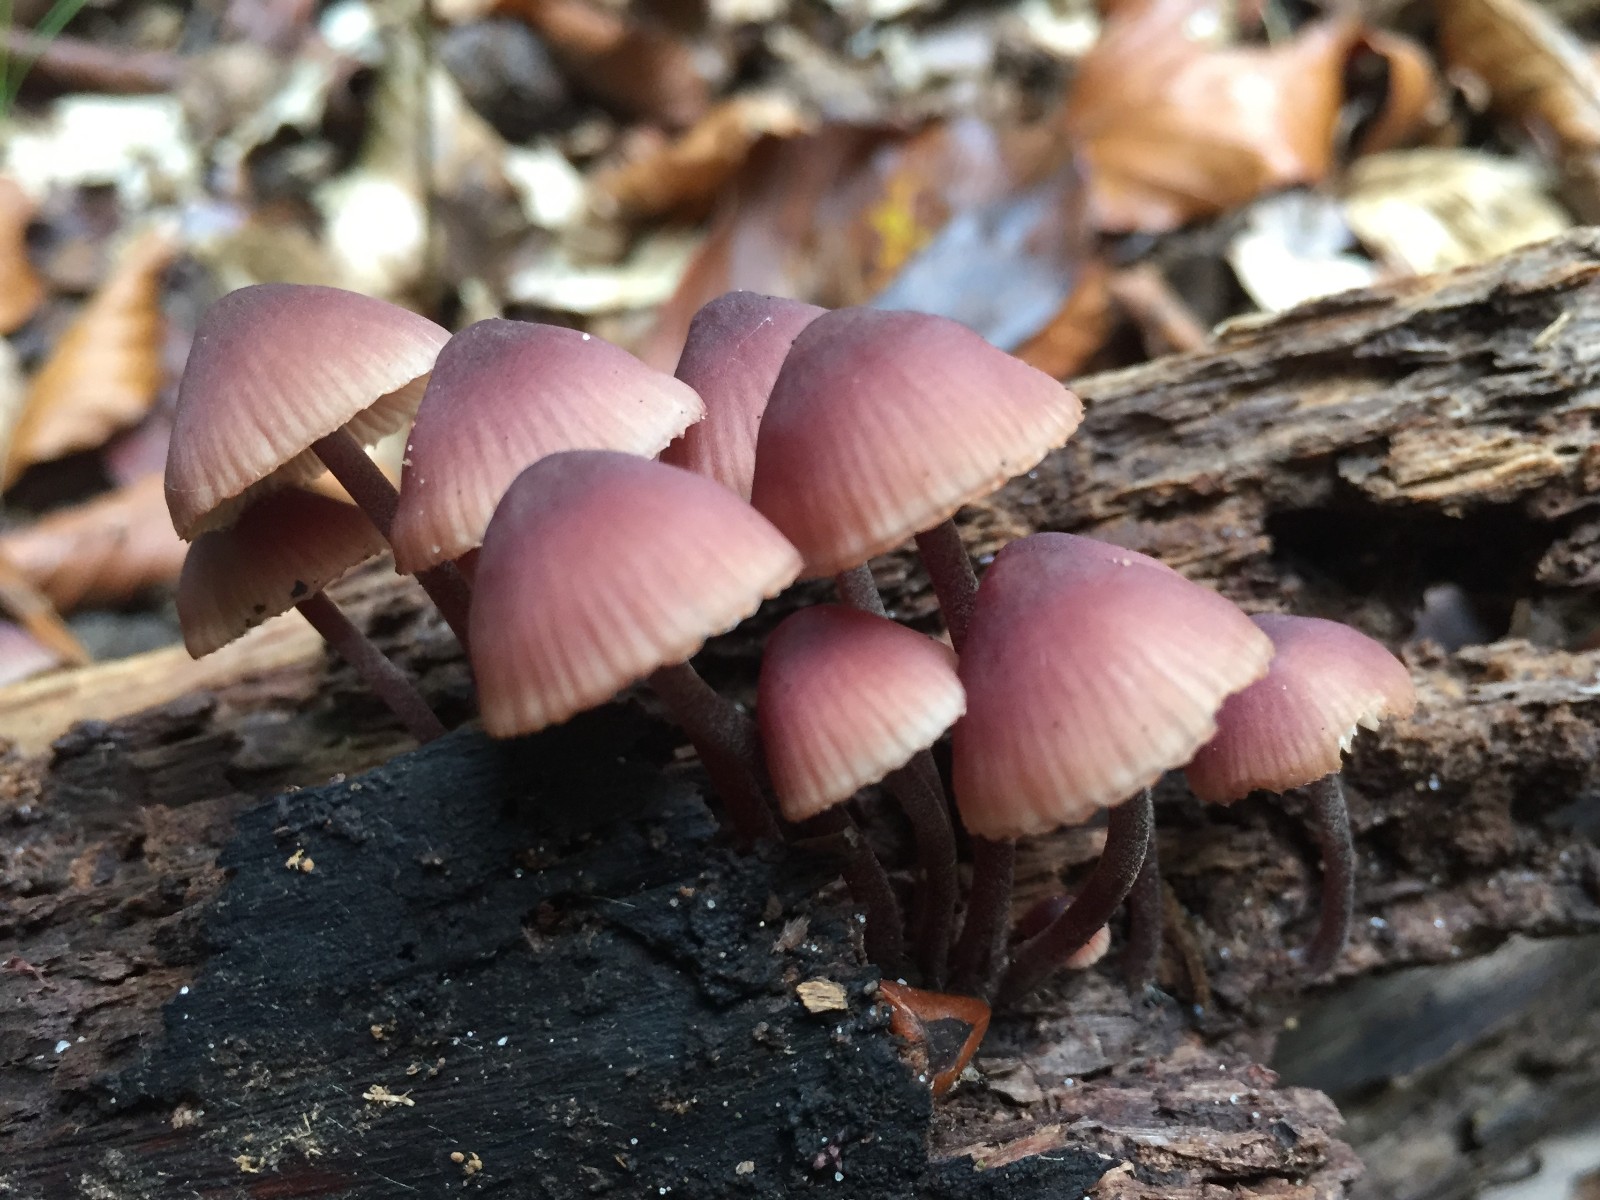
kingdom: Fungi
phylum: Basidiomycota
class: Agaricomycetes
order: Agaricales
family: Mycenaceae
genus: Mycena
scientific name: Mycena haematopus
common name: blødende huesvamp
